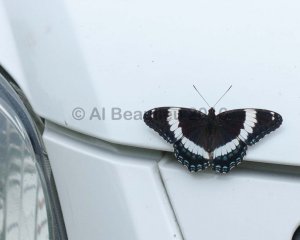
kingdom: Animalia
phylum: Arthropoda
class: Insecta
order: Lepidoptera
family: Nymphalidae
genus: Limenitis
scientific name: Limenitis arthemis
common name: Red-spotted Admiral
